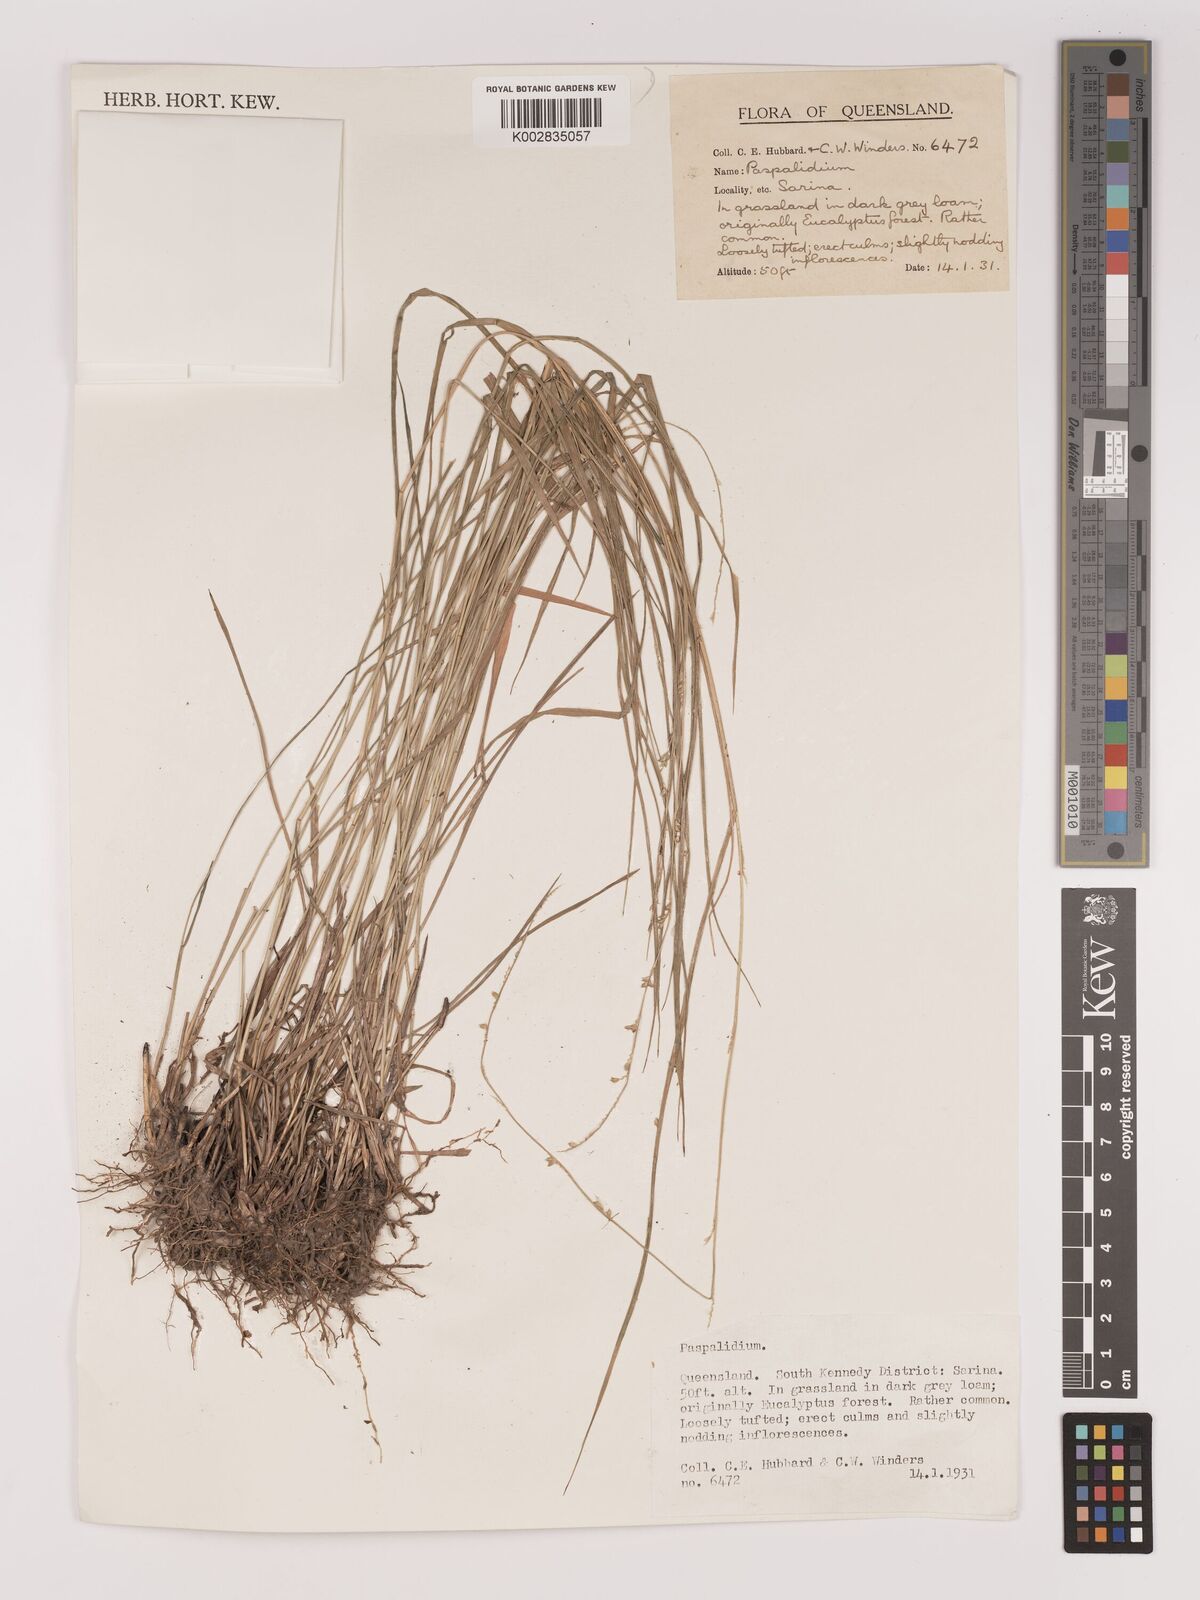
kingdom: Plantae
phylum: Tracheophyta
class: Liliopsida
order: Poales
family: Poaceae
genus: Setaria
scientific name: Setaria
